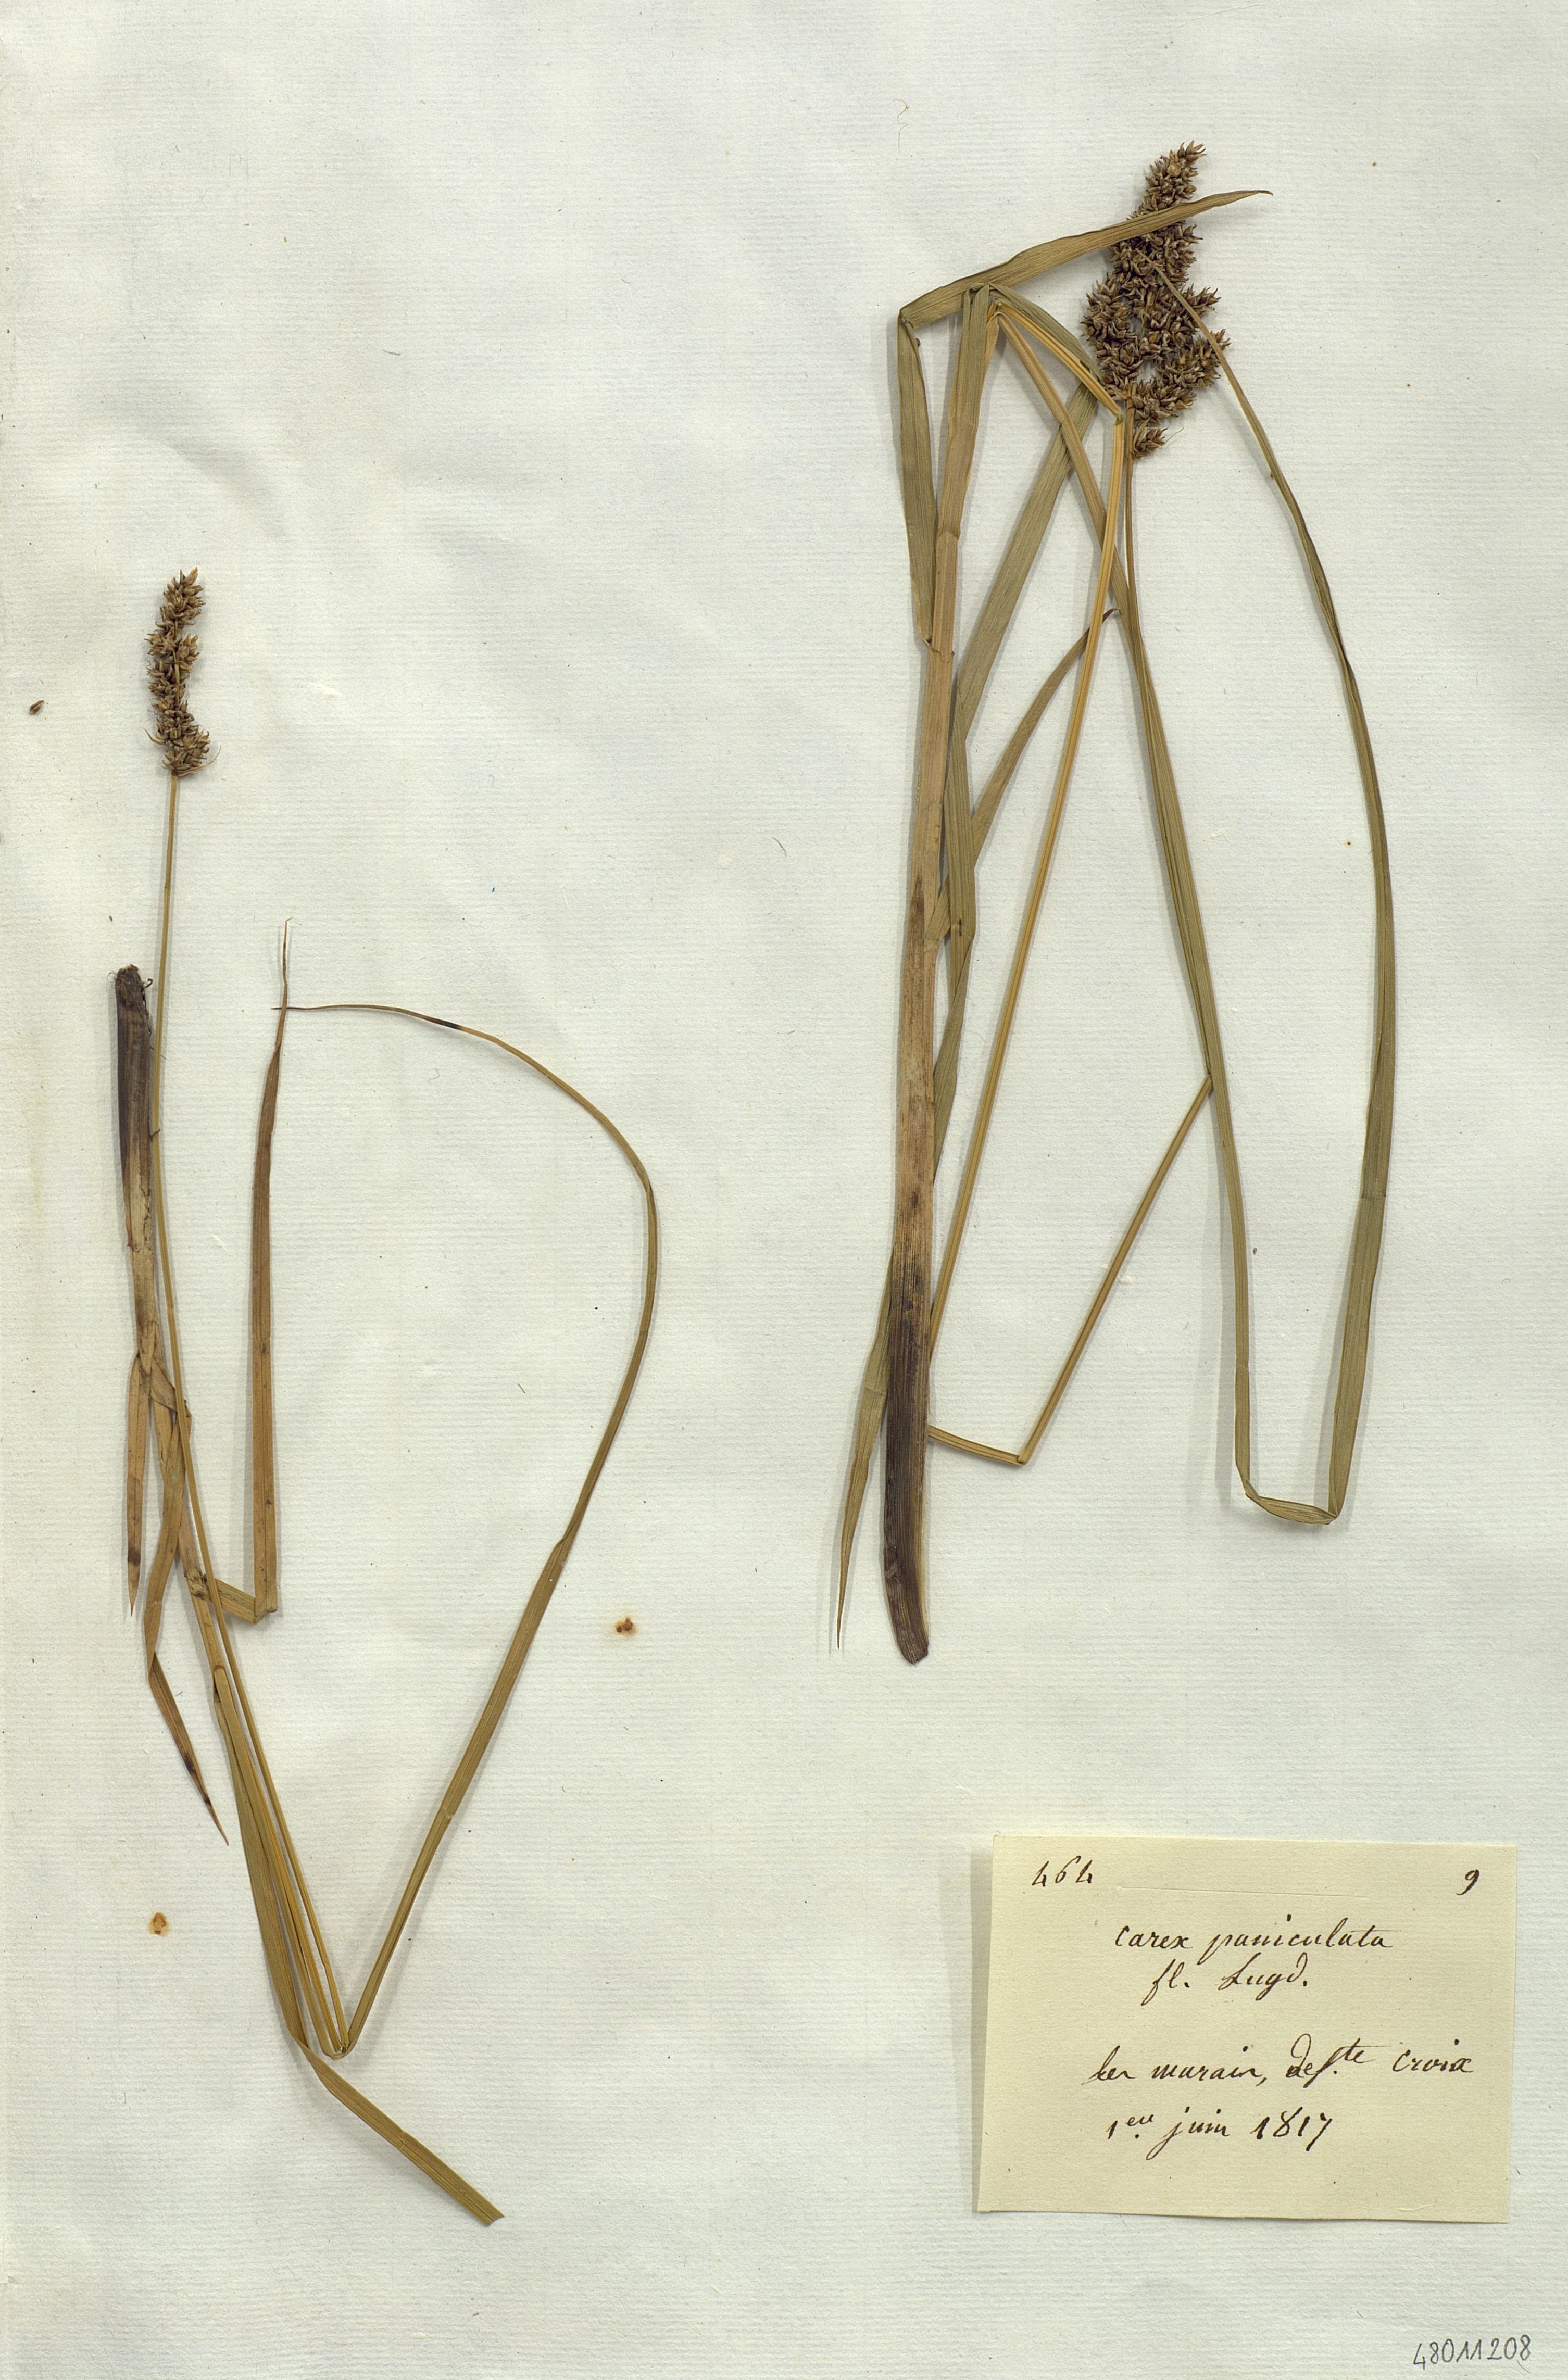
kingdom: Plantae
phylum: Tracheophyta
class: Liliopsida
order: Poales
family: Cyperaceae
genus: Carex
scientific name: Carex paniculata
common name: Greater tussock-sedge
